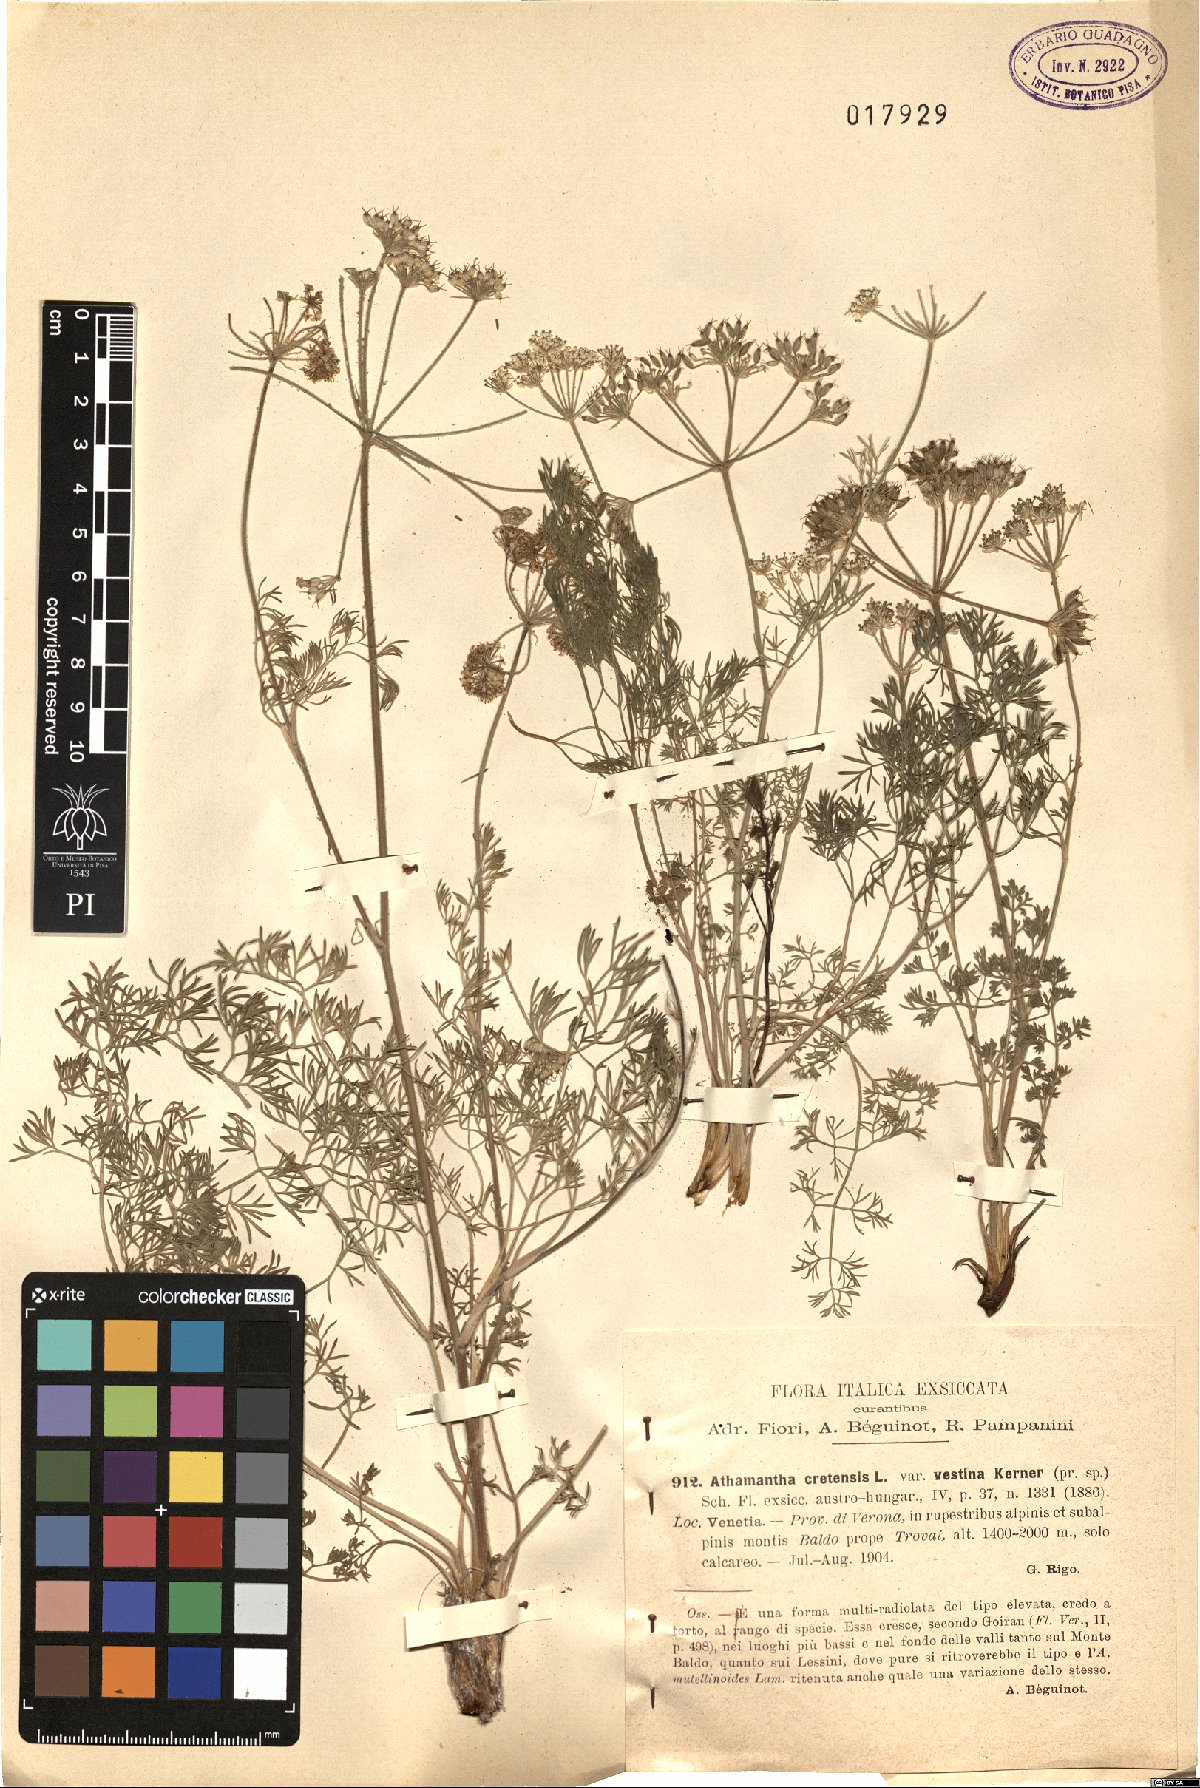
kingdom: Plantae
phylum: Tracheophyta
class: Magnoliopsida
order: Apiales
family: Apiaceae
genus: Athamanta
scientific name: Athamanta cretensis
